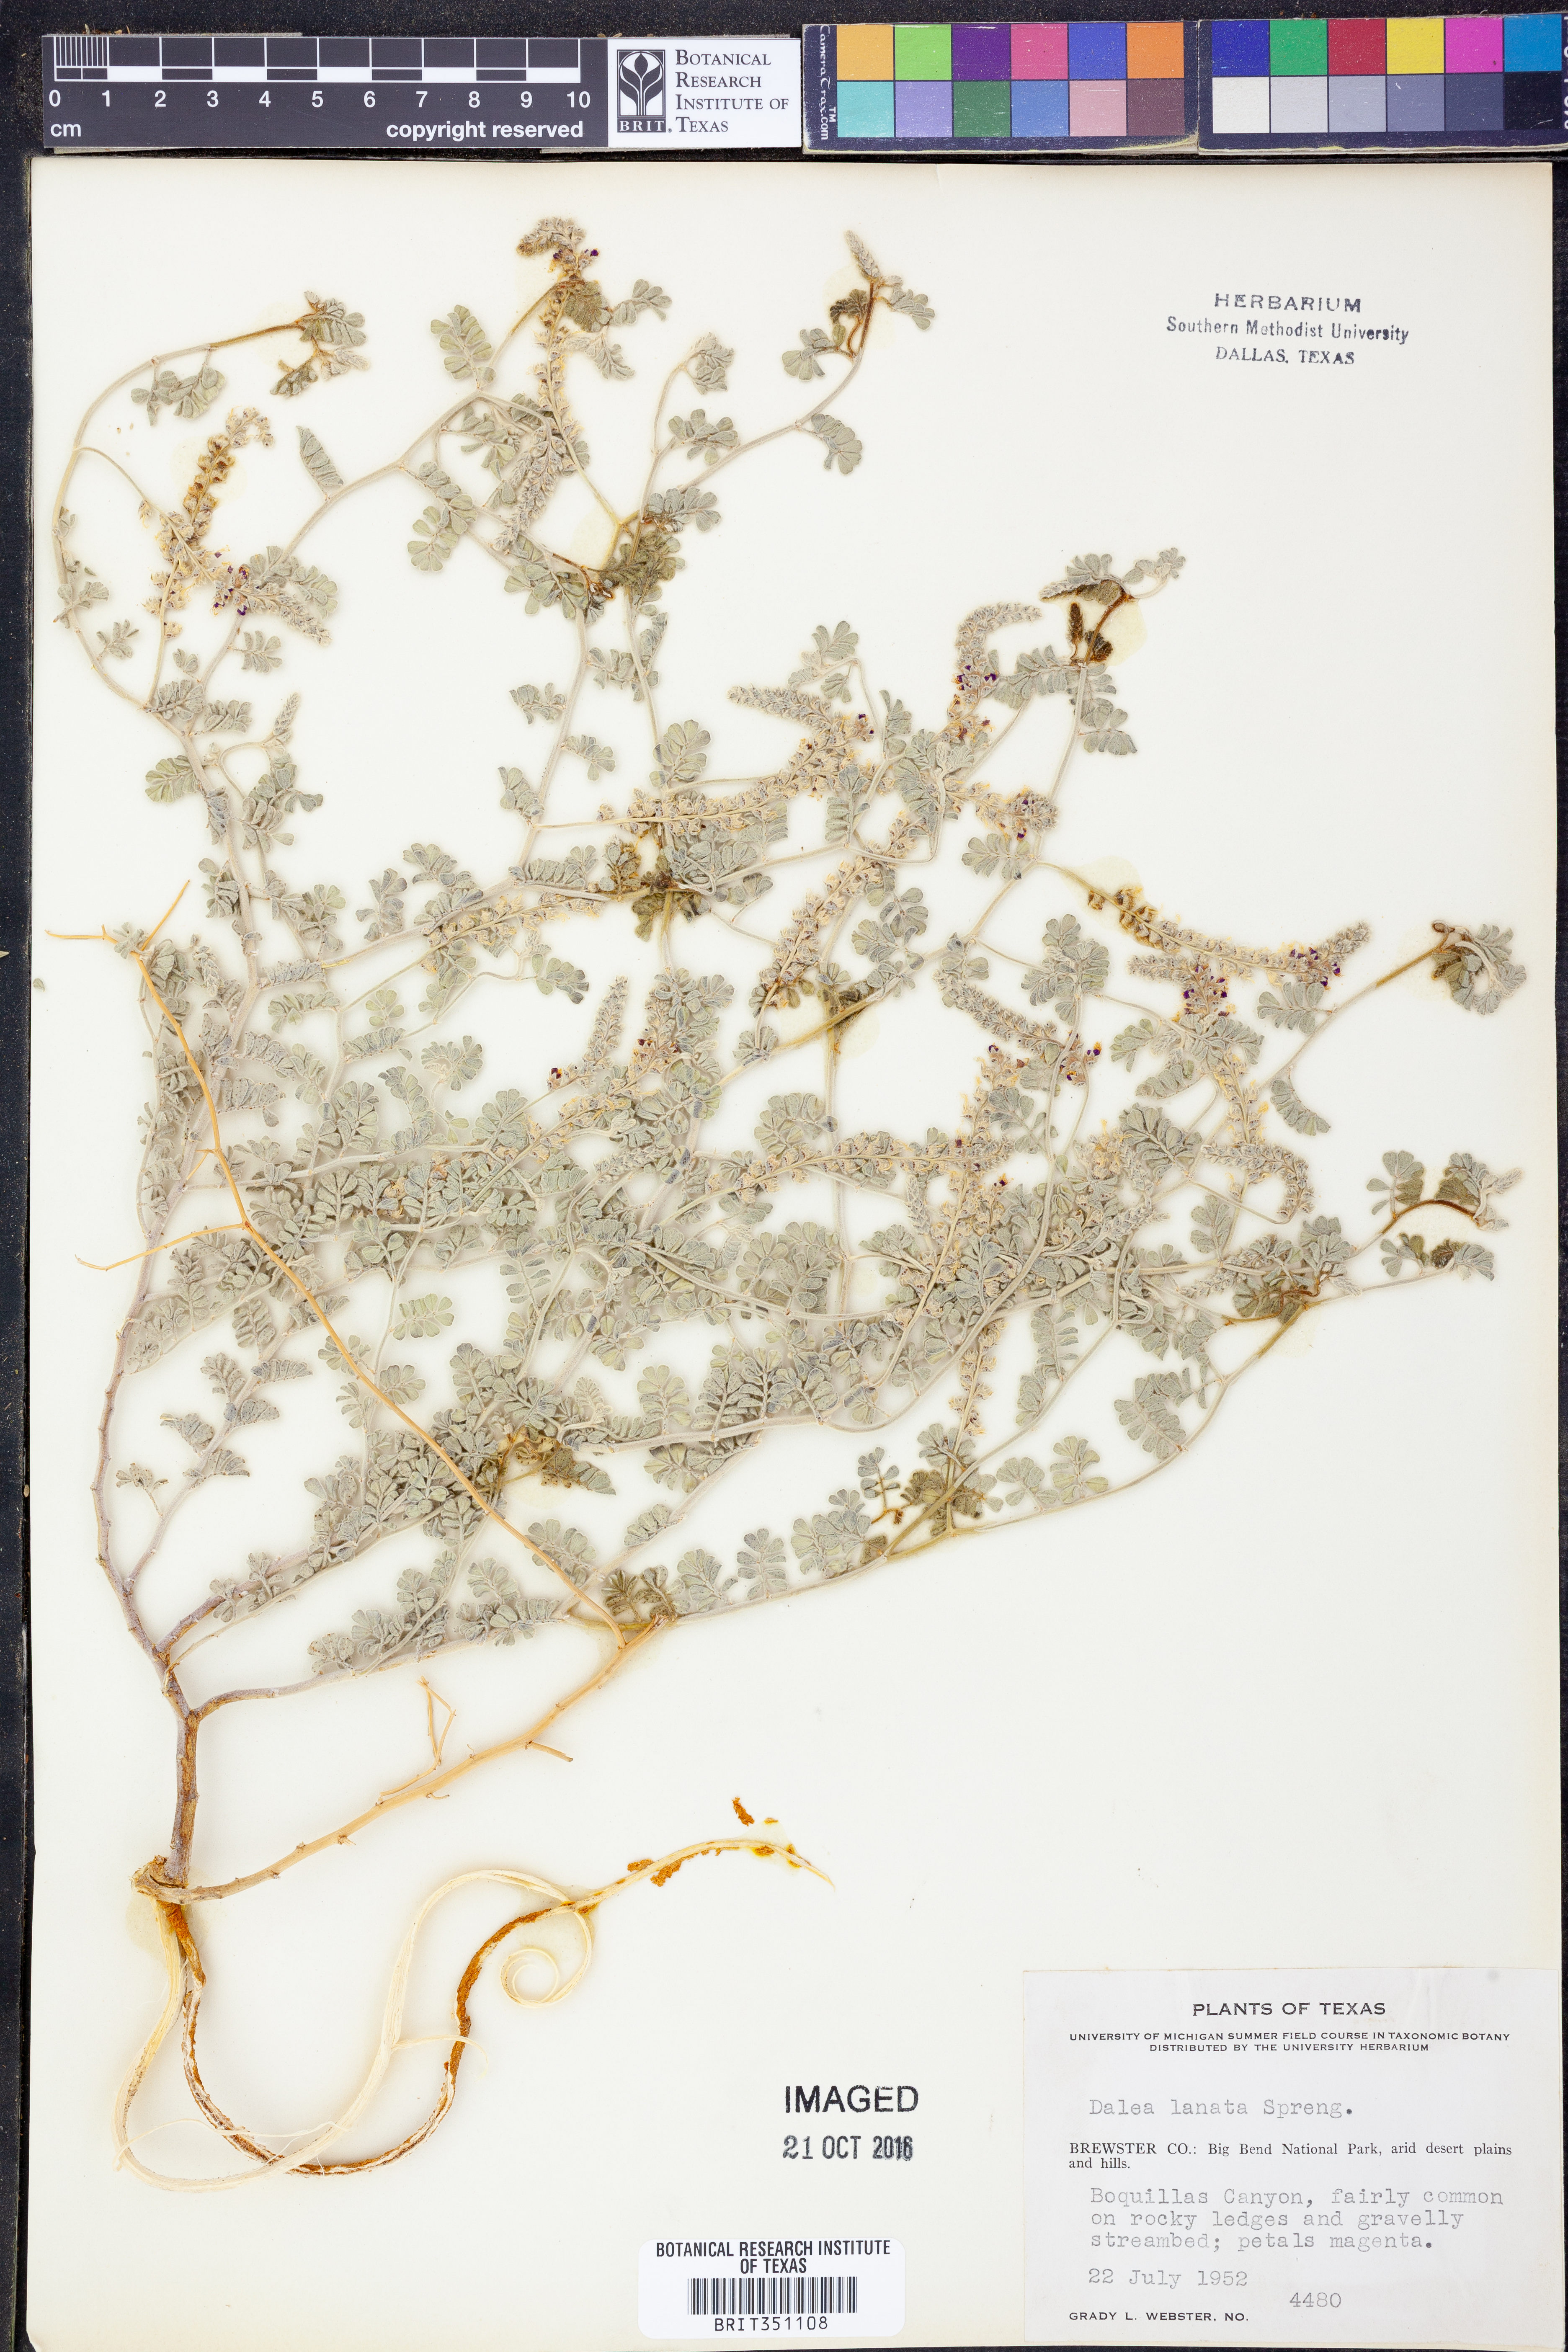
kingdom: Plantae
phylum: Tracheophyta
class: Magnoliopsida
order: Fabales
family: Fabaceae
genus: Dalea
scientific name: Dalea lanata
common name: Woolly dalea
